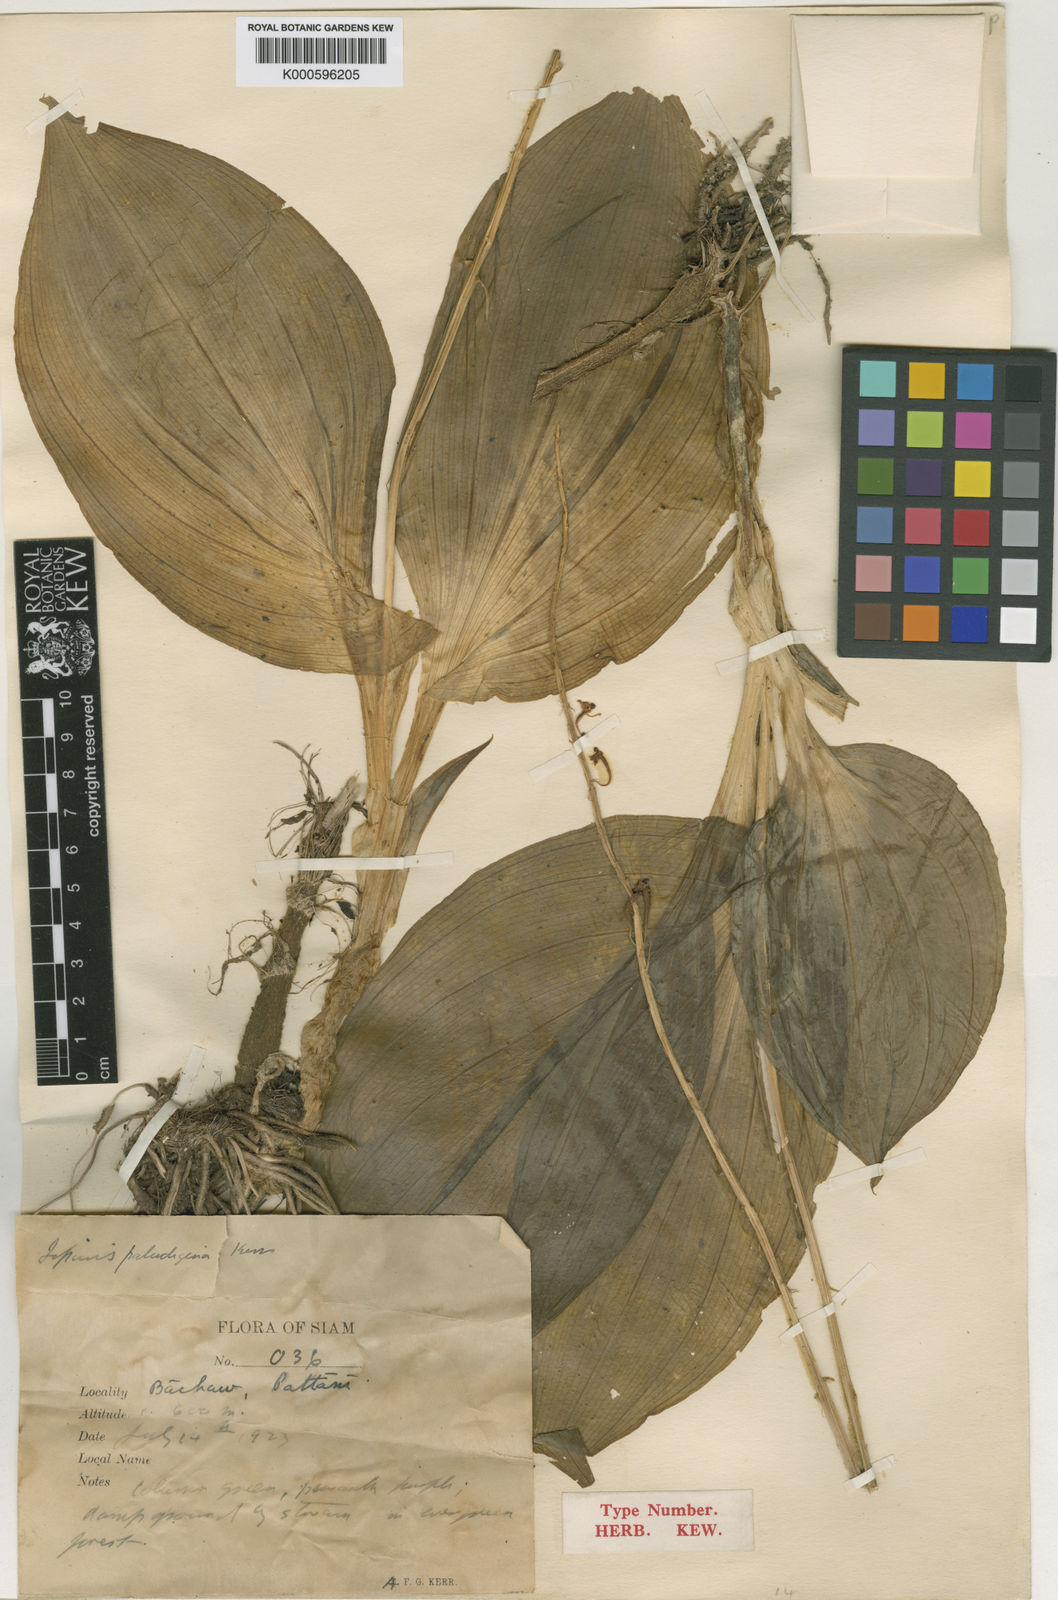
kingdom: Plantae
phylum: Tracheophyta
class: Liliopsida
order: Asparagales
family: Orchidaceae
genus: Liparis
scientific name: Liparis rheedei
